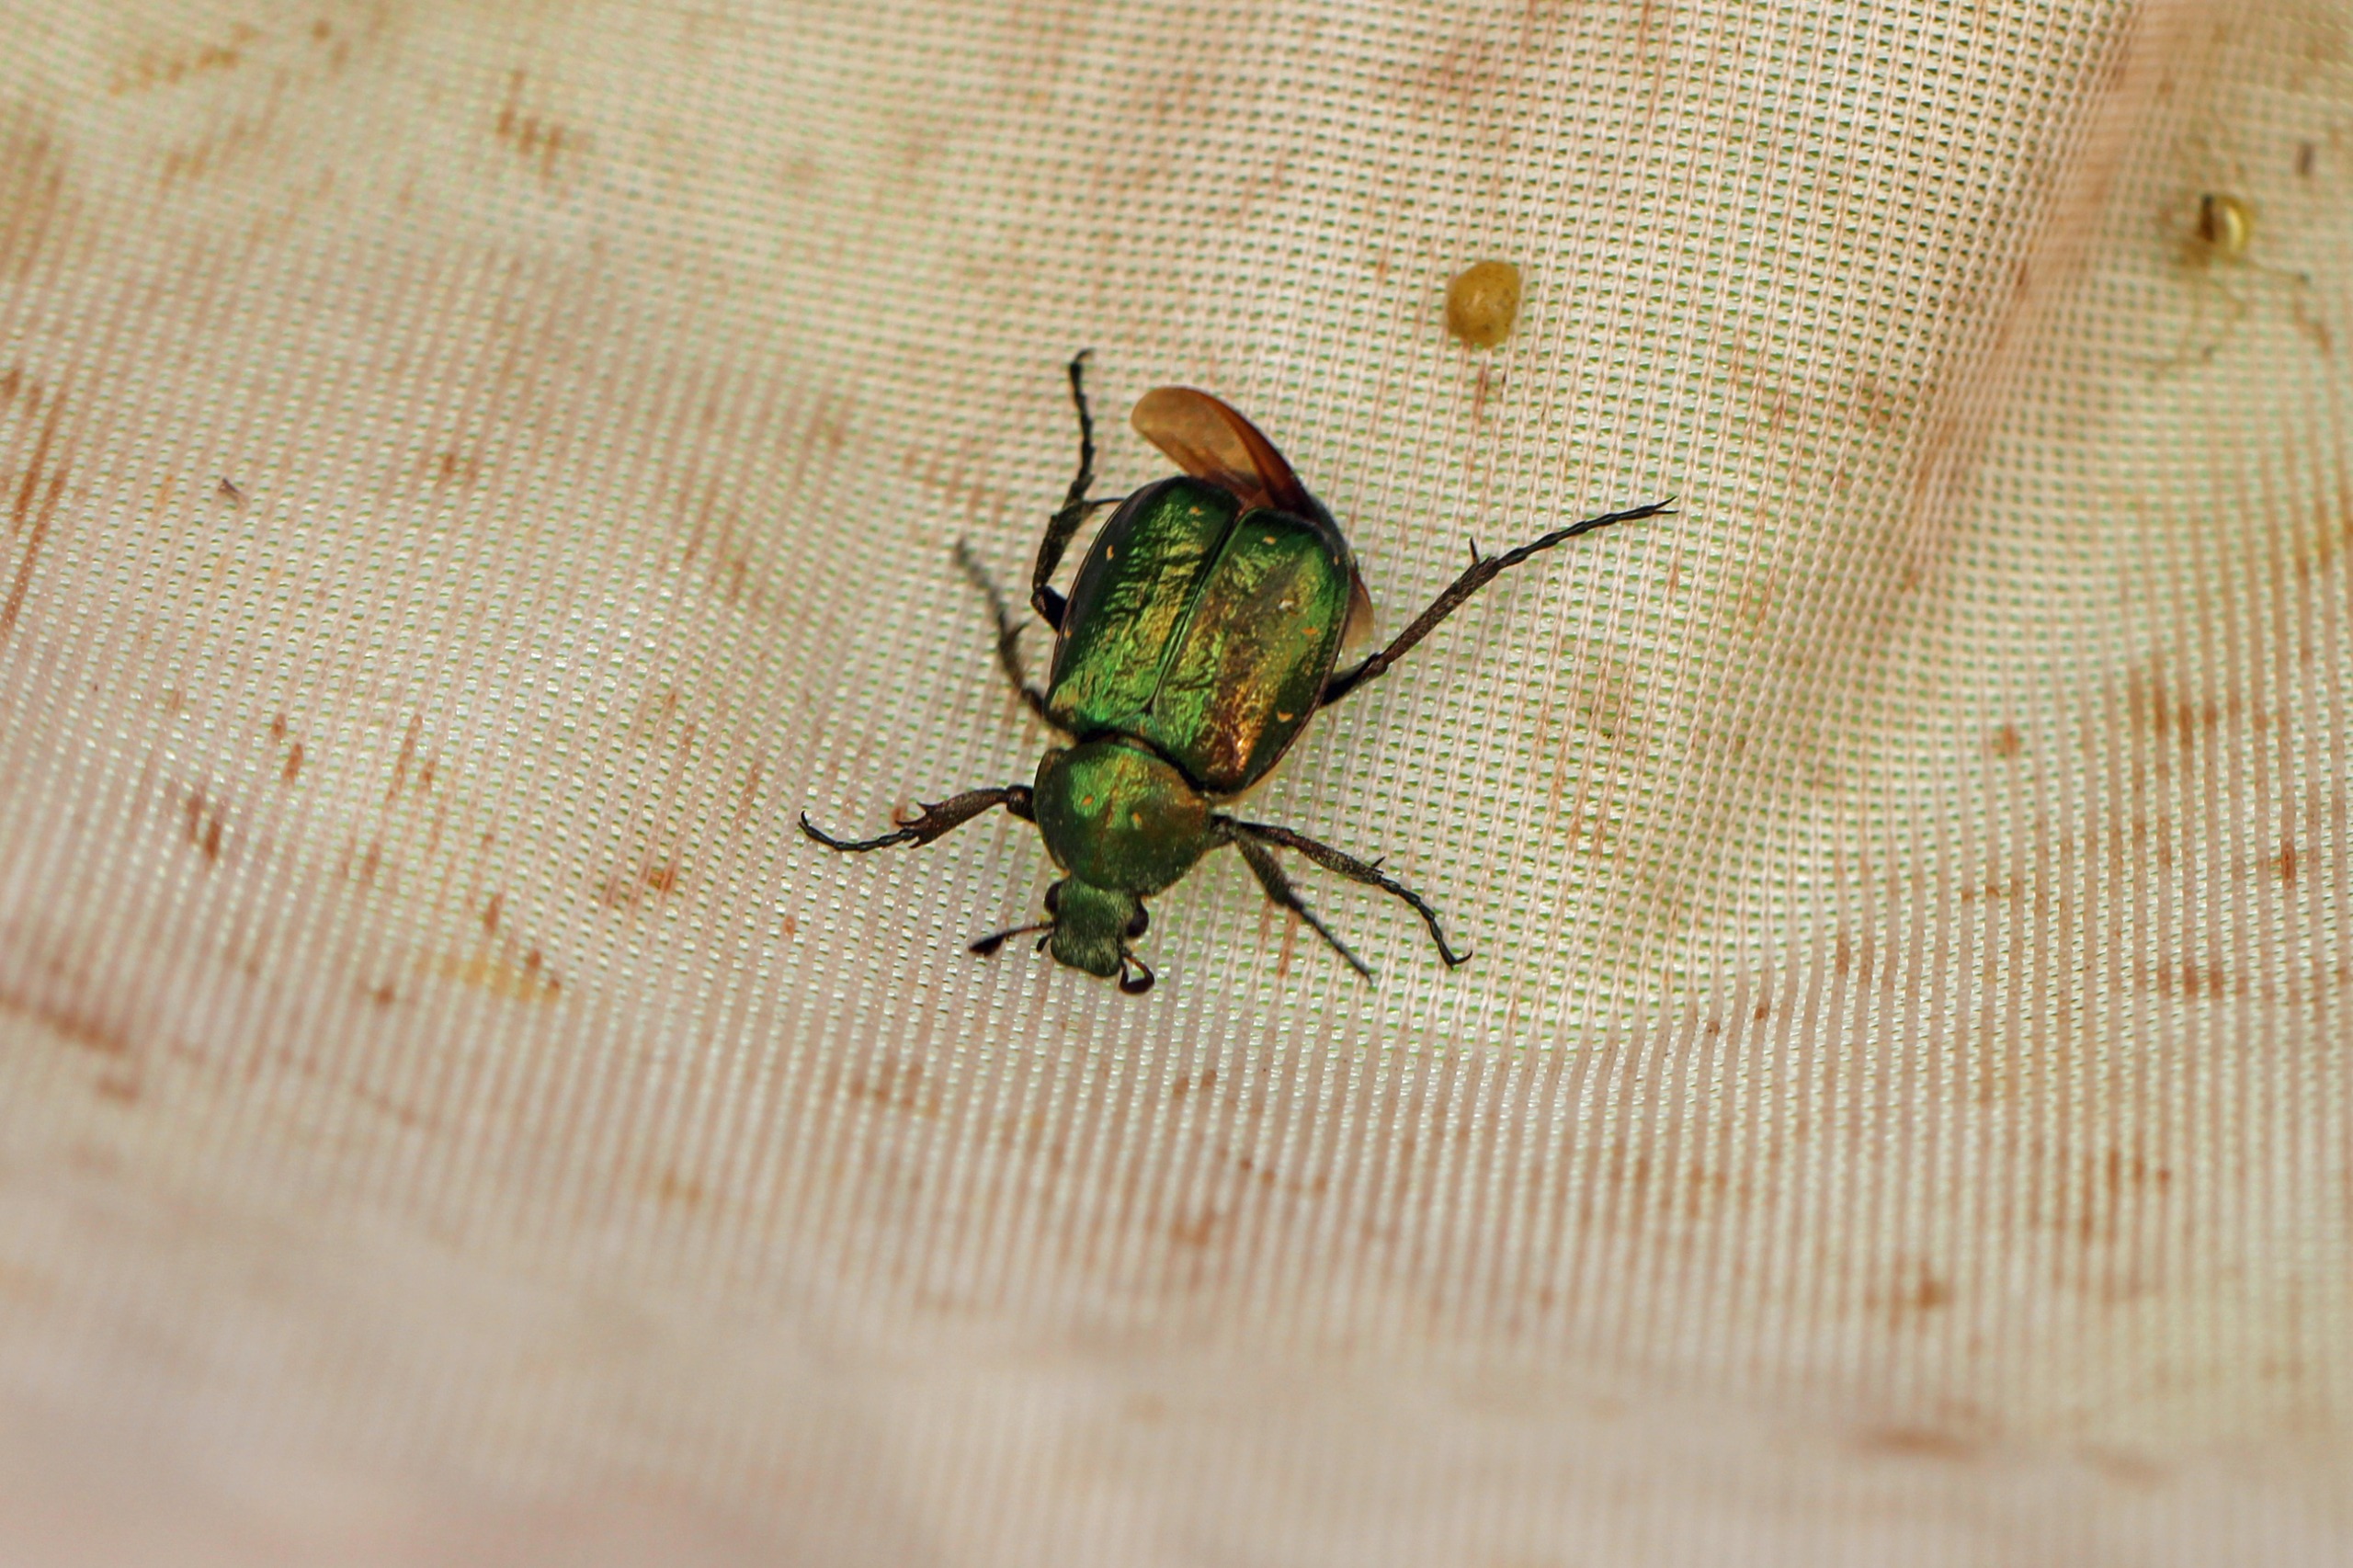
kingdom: Animalia
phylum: Arthropoda
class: Insecta
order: Coleoptera
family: Scarabaeidae
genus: Gnorimus
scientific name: Gnorimus nobilis
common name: Grøn pragttorbist
